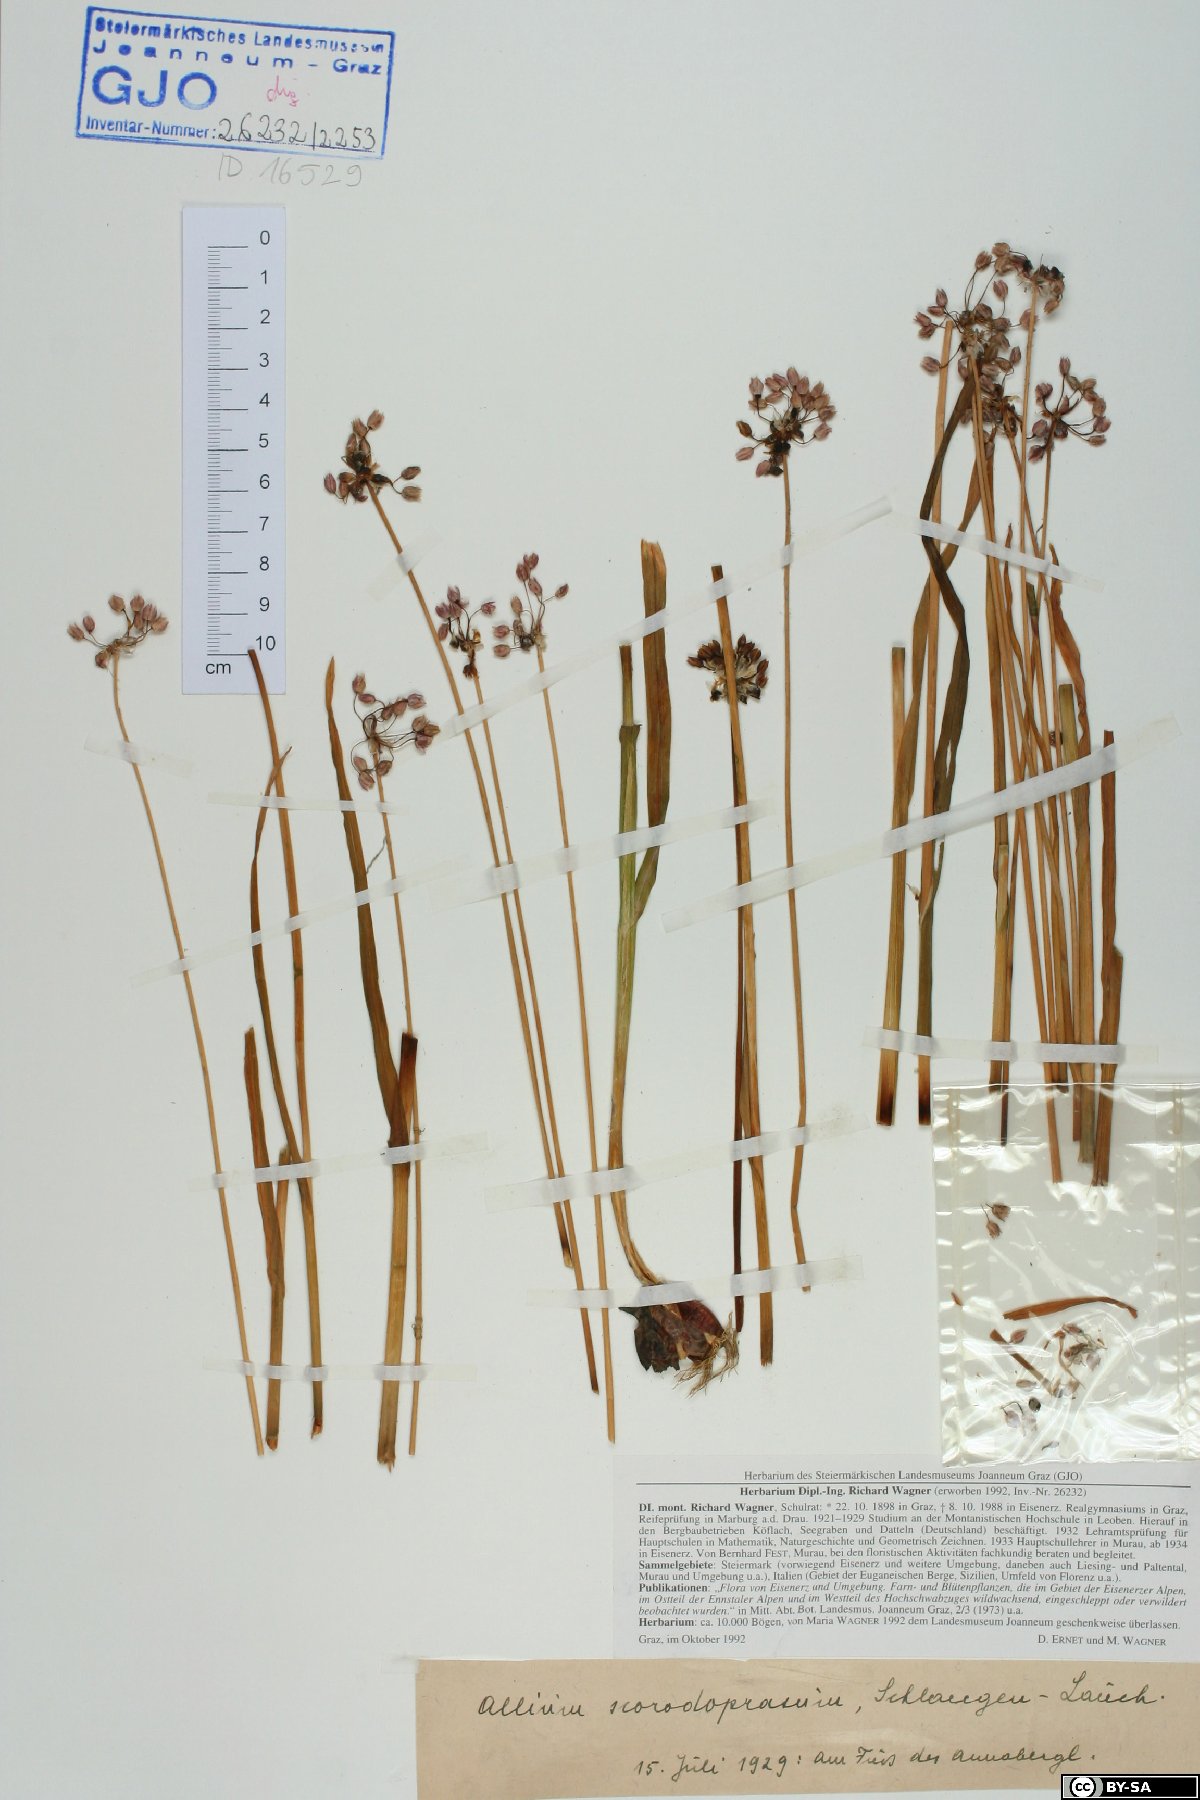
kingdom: Plantae
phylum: Tracheophyta
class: Liliopsida
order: Asparagales
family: Amaryllidaceae
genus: Allium
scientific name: Allium scorodoprasum
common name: Sand leek
